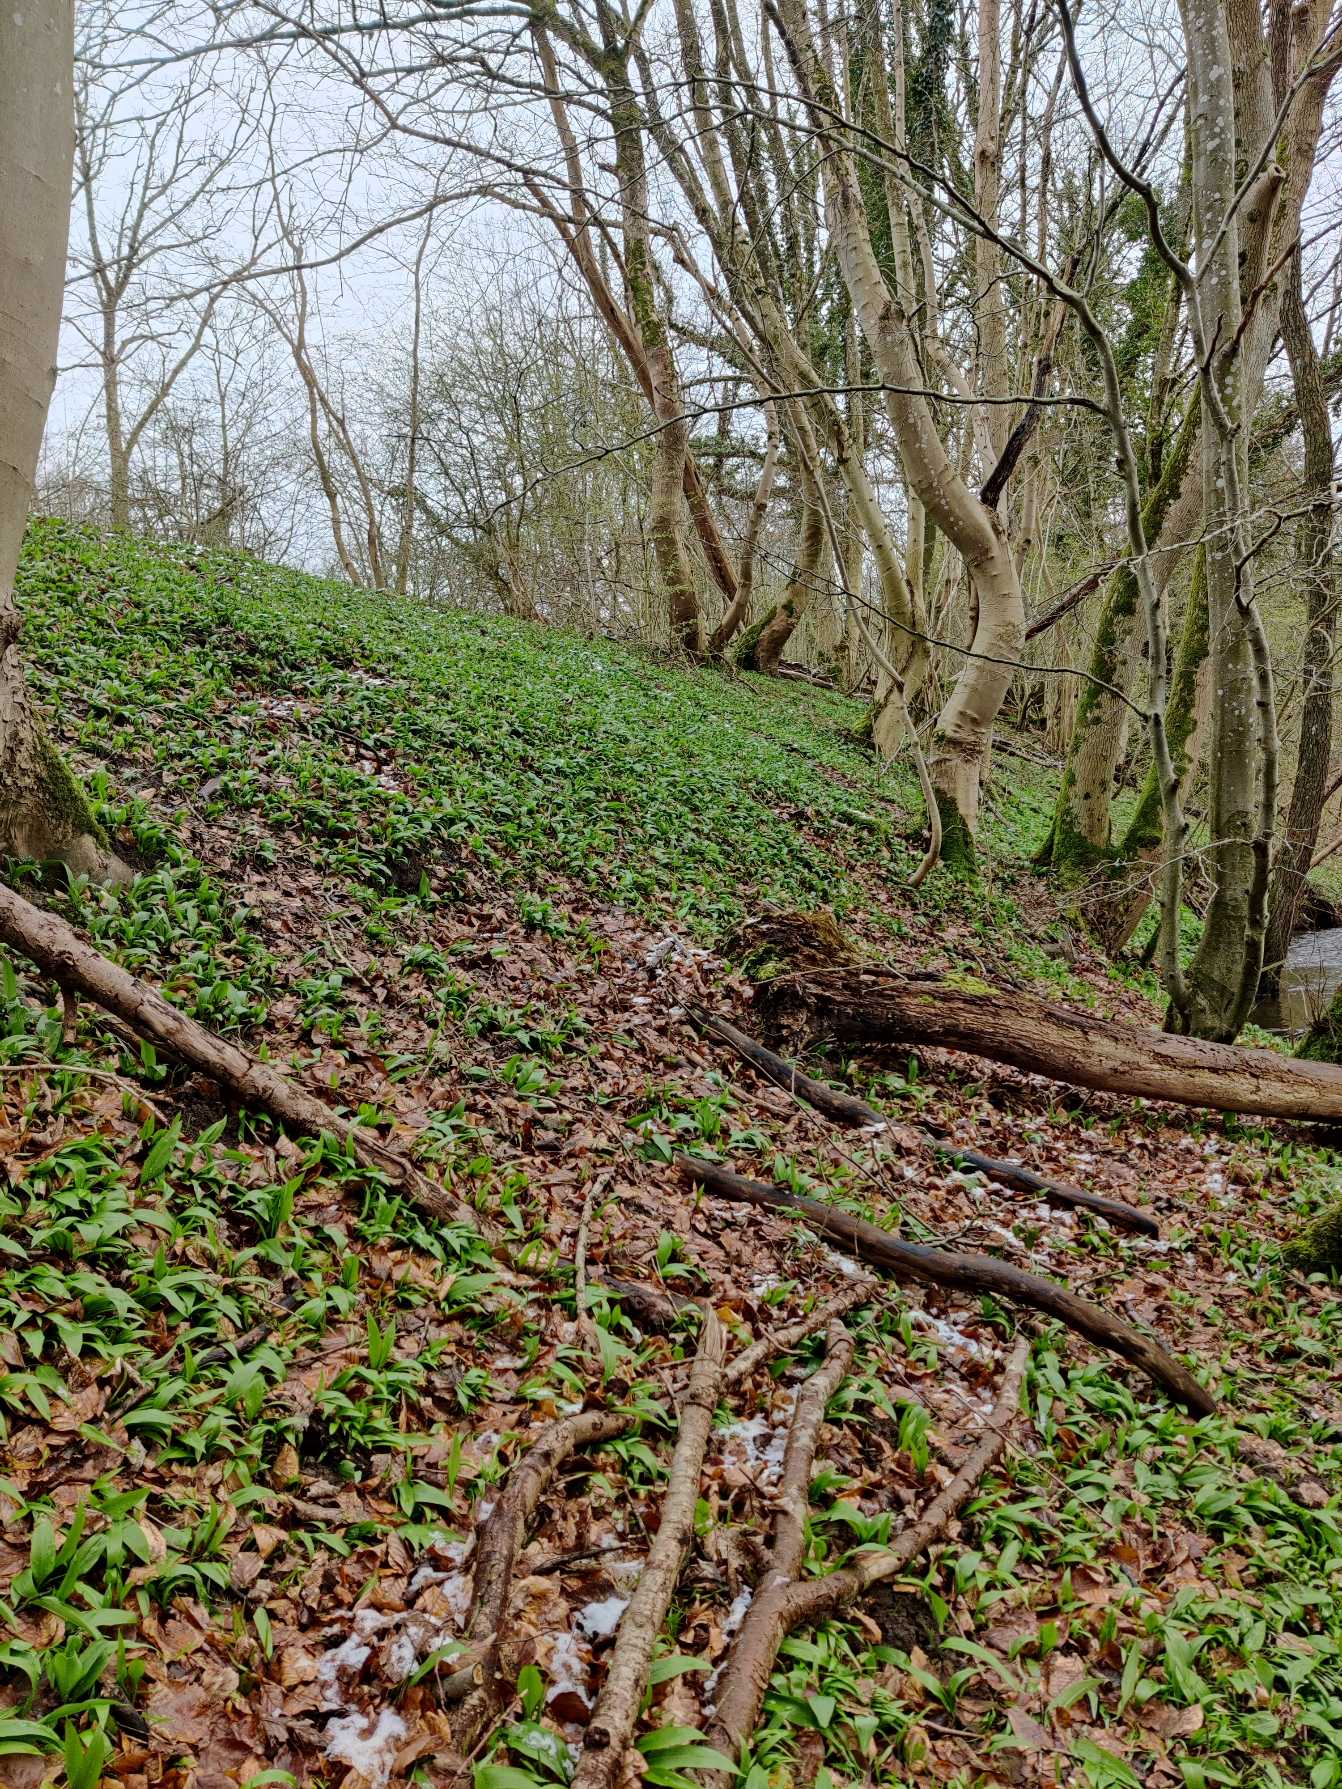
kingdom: Plantae
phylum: Tracheophyta
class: Liliopsida
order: Asparagales
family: Amaryllidaceae
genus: Allium
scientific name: Allium ursinum
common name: Rams-løg
